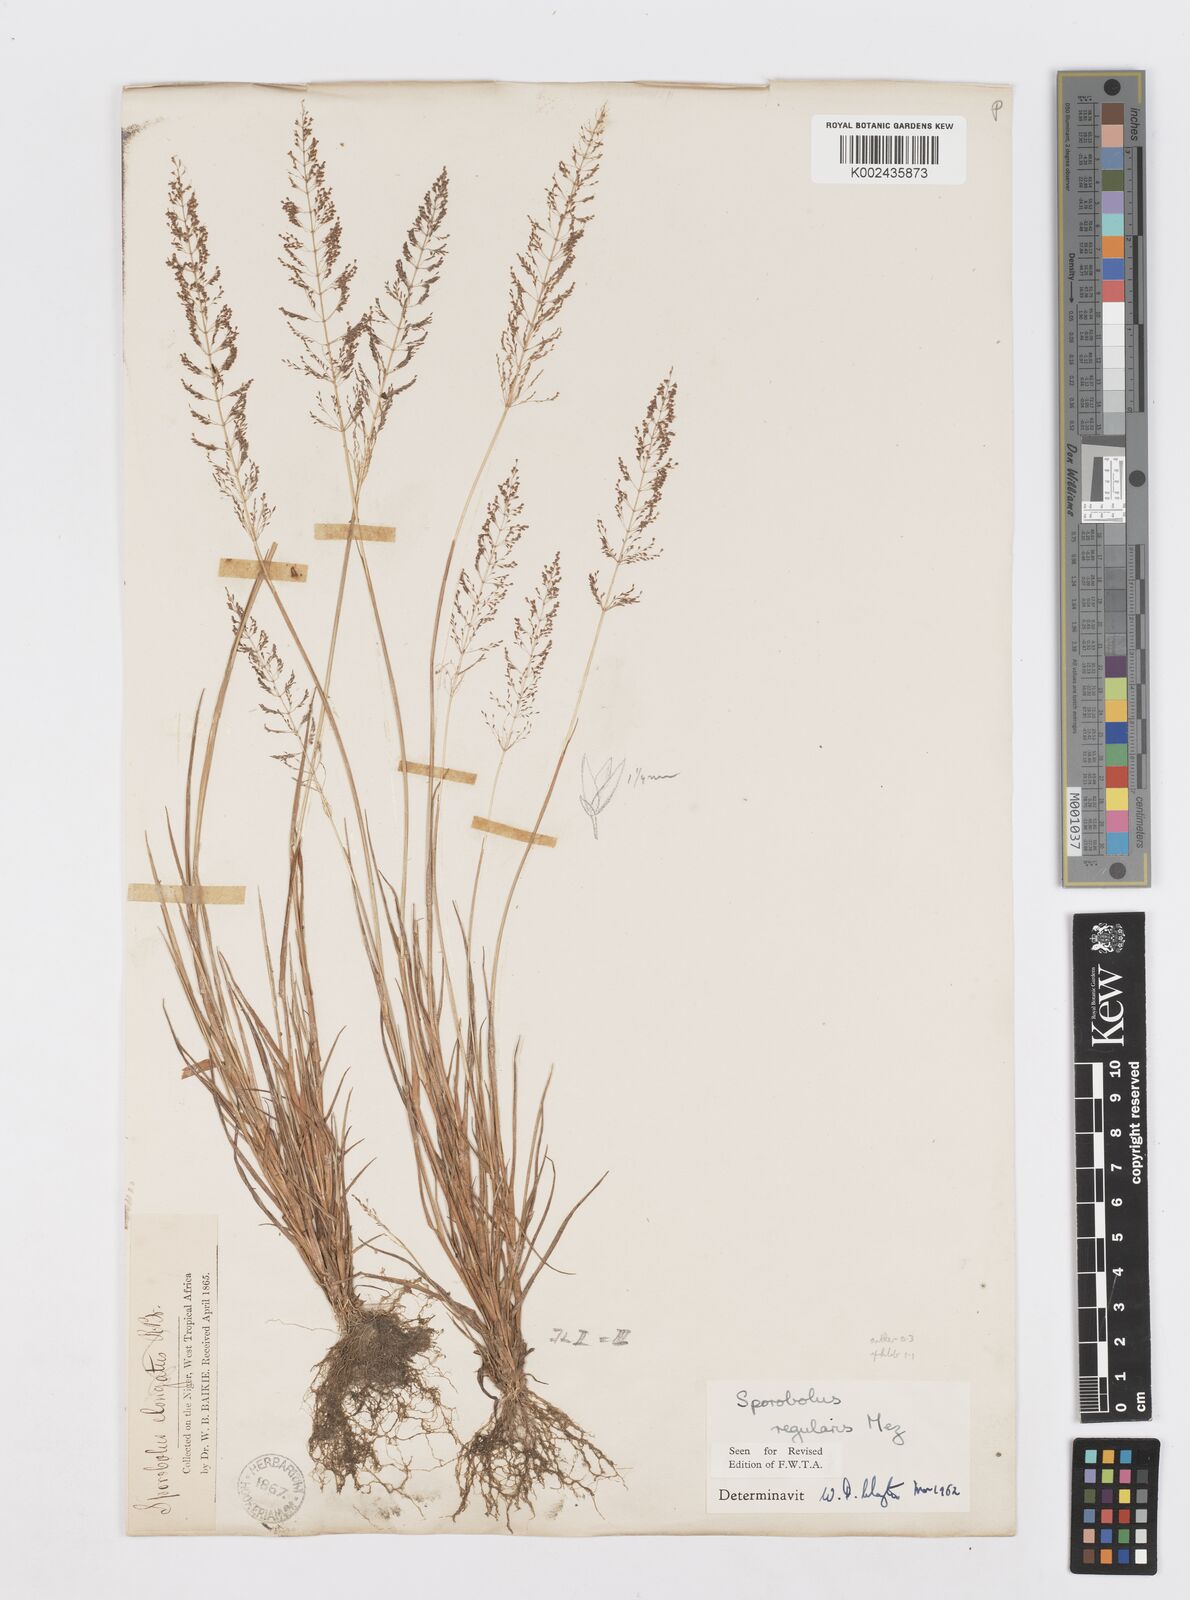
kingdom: Plantae
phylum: Tracheophyta
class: Liliopsida
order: Poales
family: Poaceae
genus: Sporobolus
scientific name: Sporobolus micranthus
